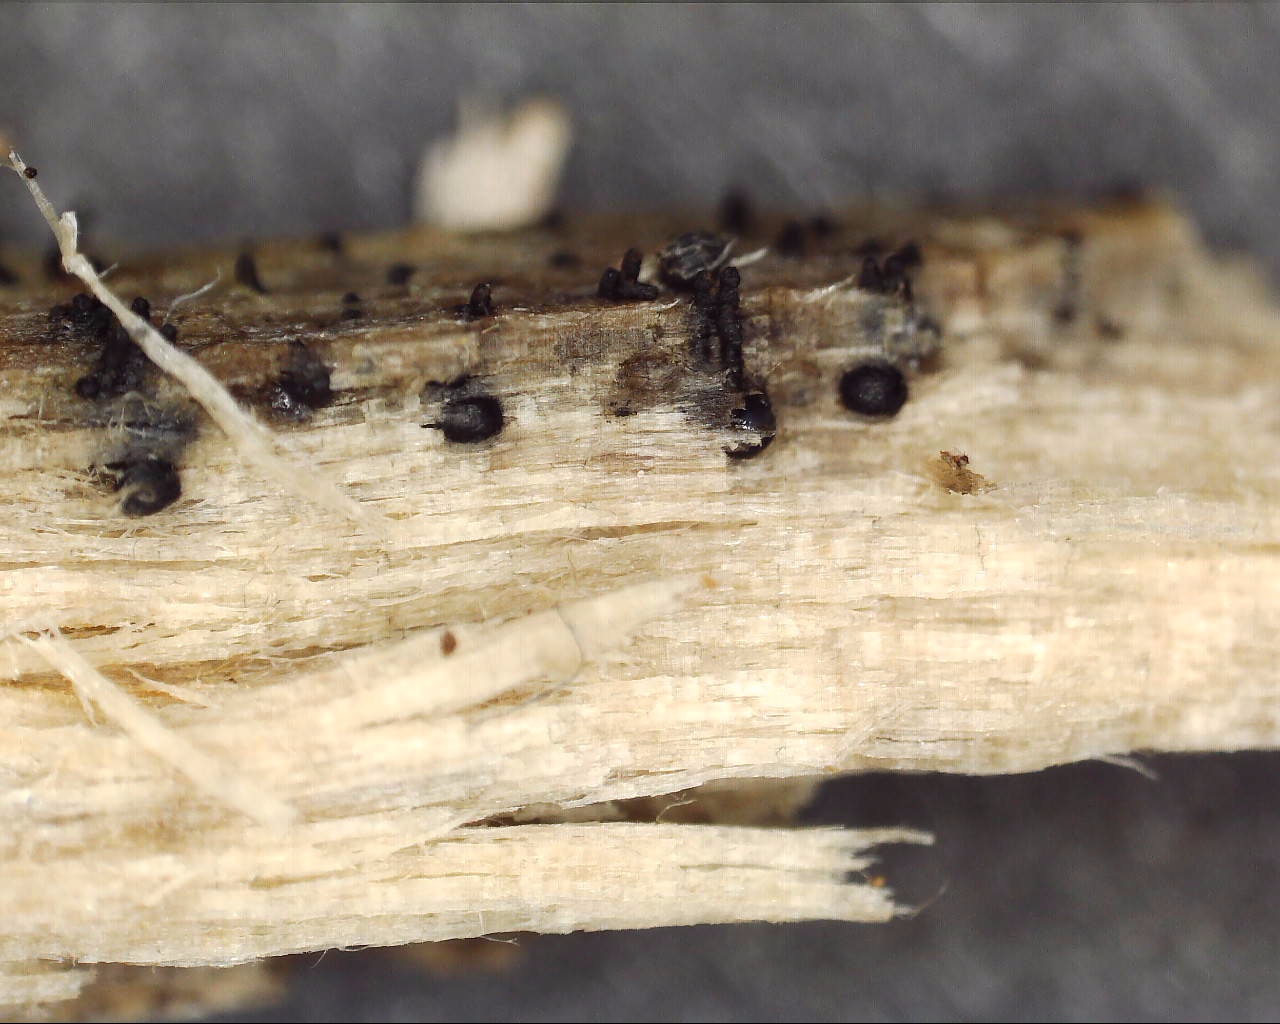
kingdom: Fungi
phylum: Ascomycota
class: Sordariomycetes
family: Barbatosphaeriaceae
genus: Xylomelasma
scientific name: Xylomelasma sordida
